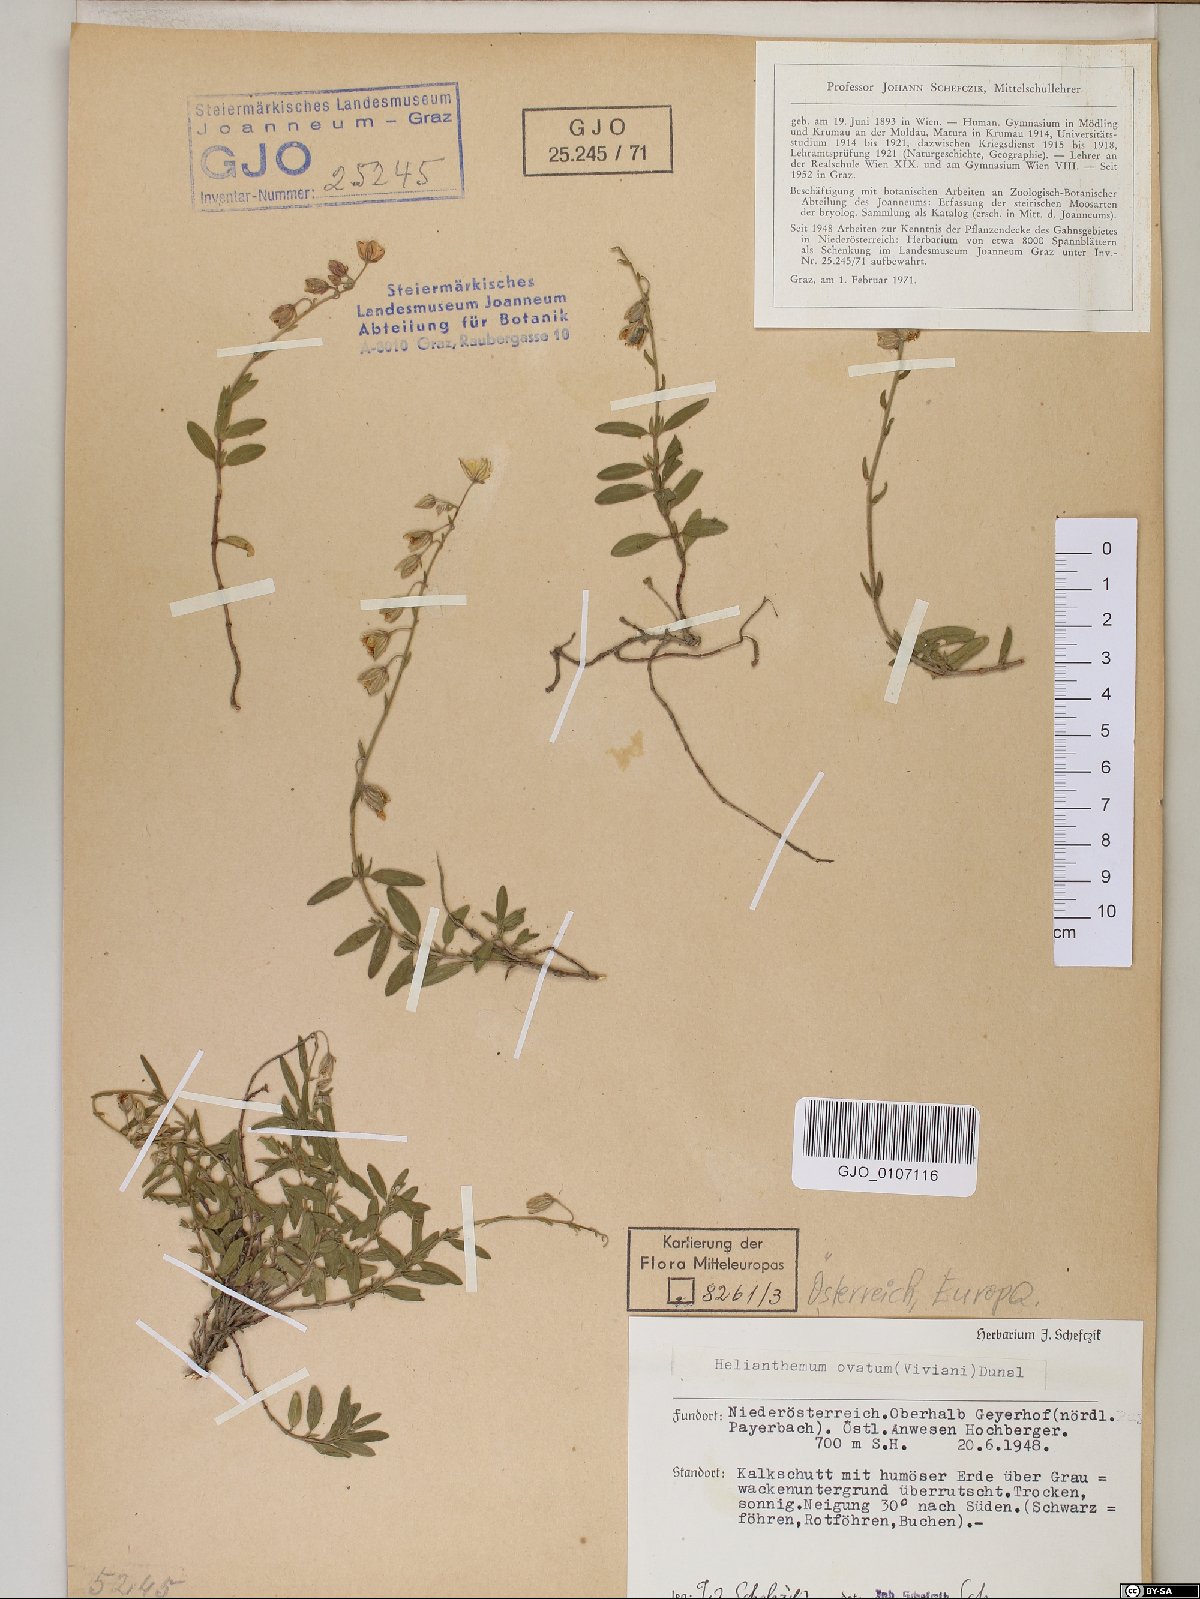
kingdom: Plantae
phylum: Tracheophyta
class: Magnoliopsida
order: Malvales
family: Cistaceae
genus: Helianthemum
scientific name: Helianthemum nummularium
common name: Common rock-rose
